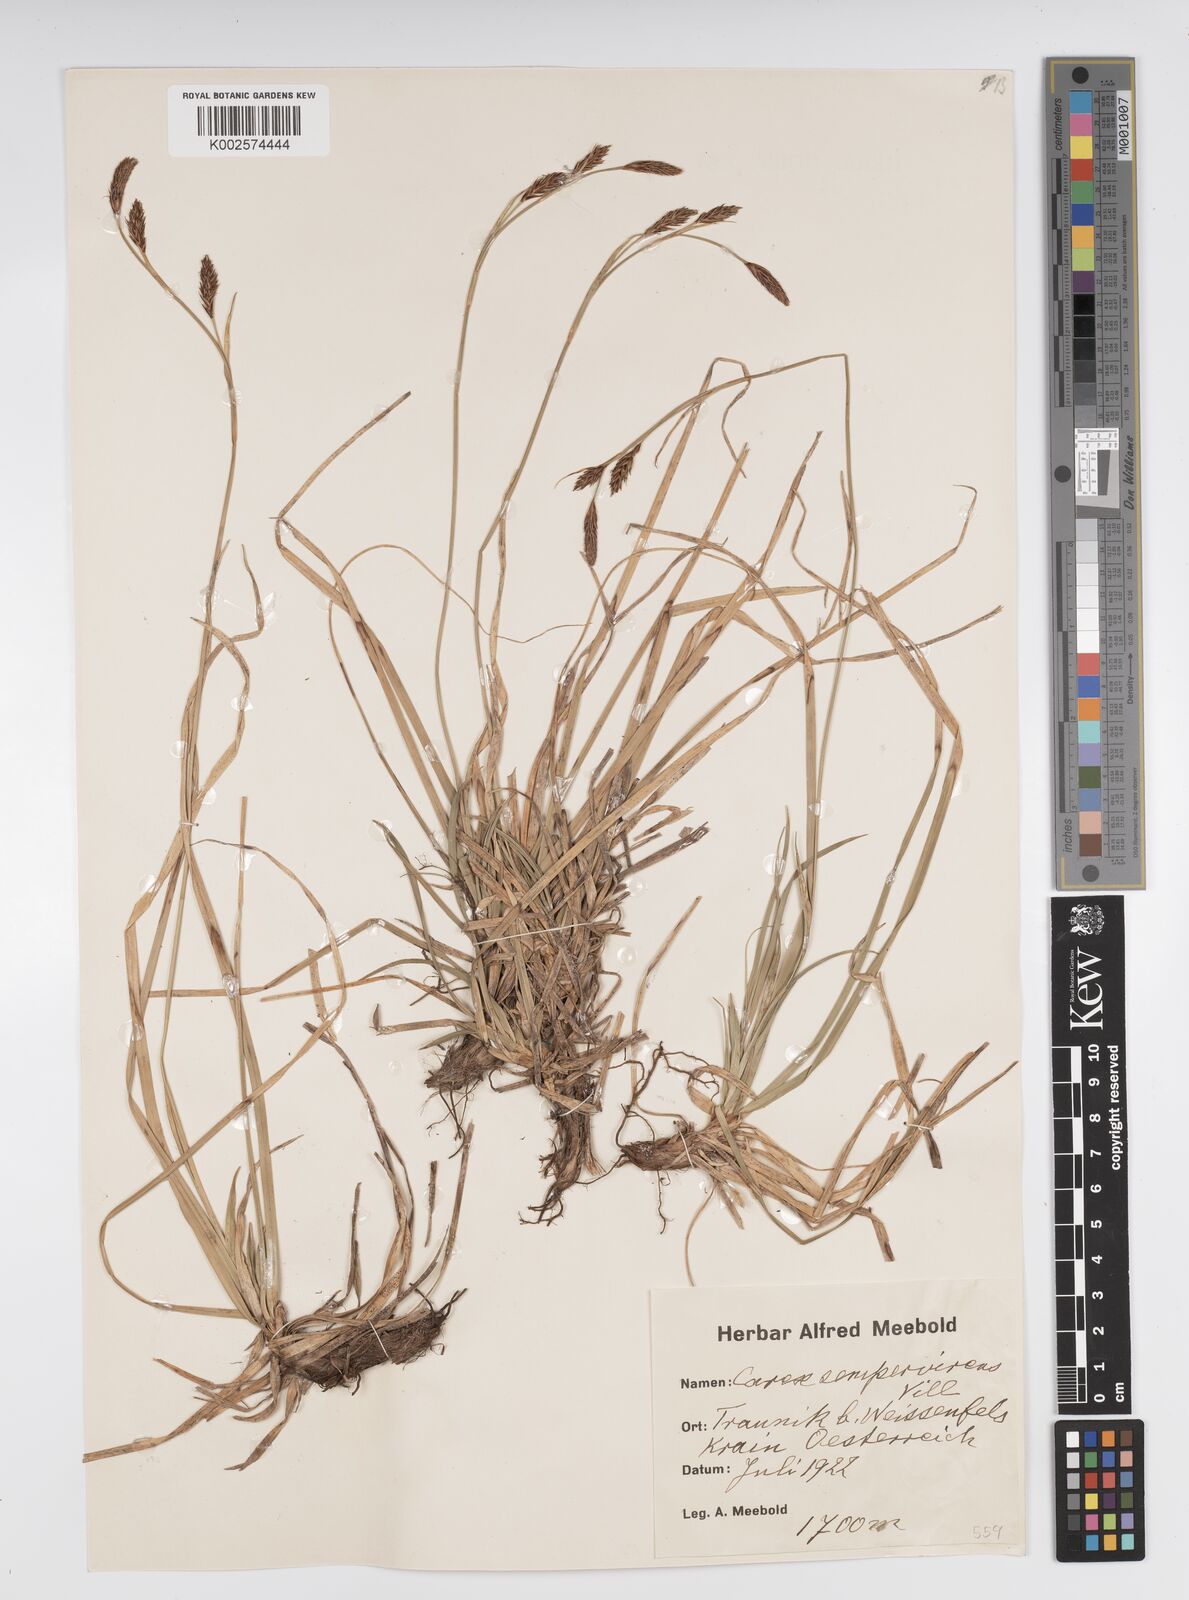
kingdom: Plantae
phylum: Tracheophyta
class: Liliopsida
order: Poales
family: Cyperaceae
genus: Carex
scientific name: Carex sempervirens
